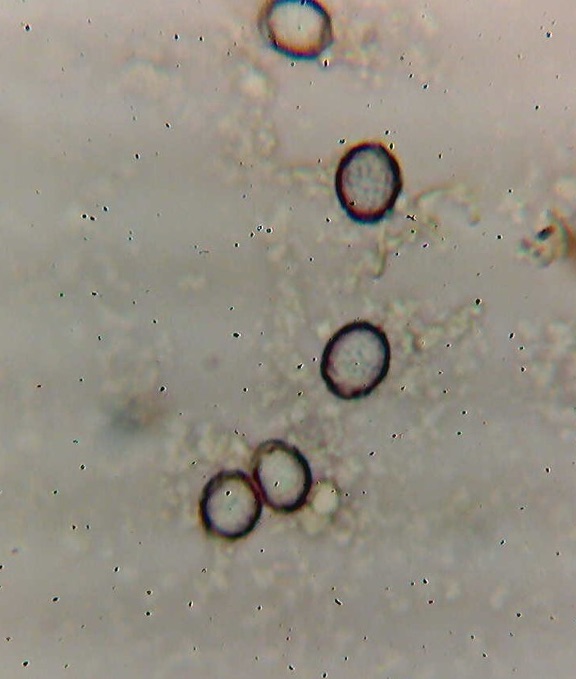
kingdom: Fungi
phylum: Basidiomycota
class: Agaricomycetes
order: Russulales
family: Russulaceae
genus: Russula
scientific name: Russula nigrifacta
